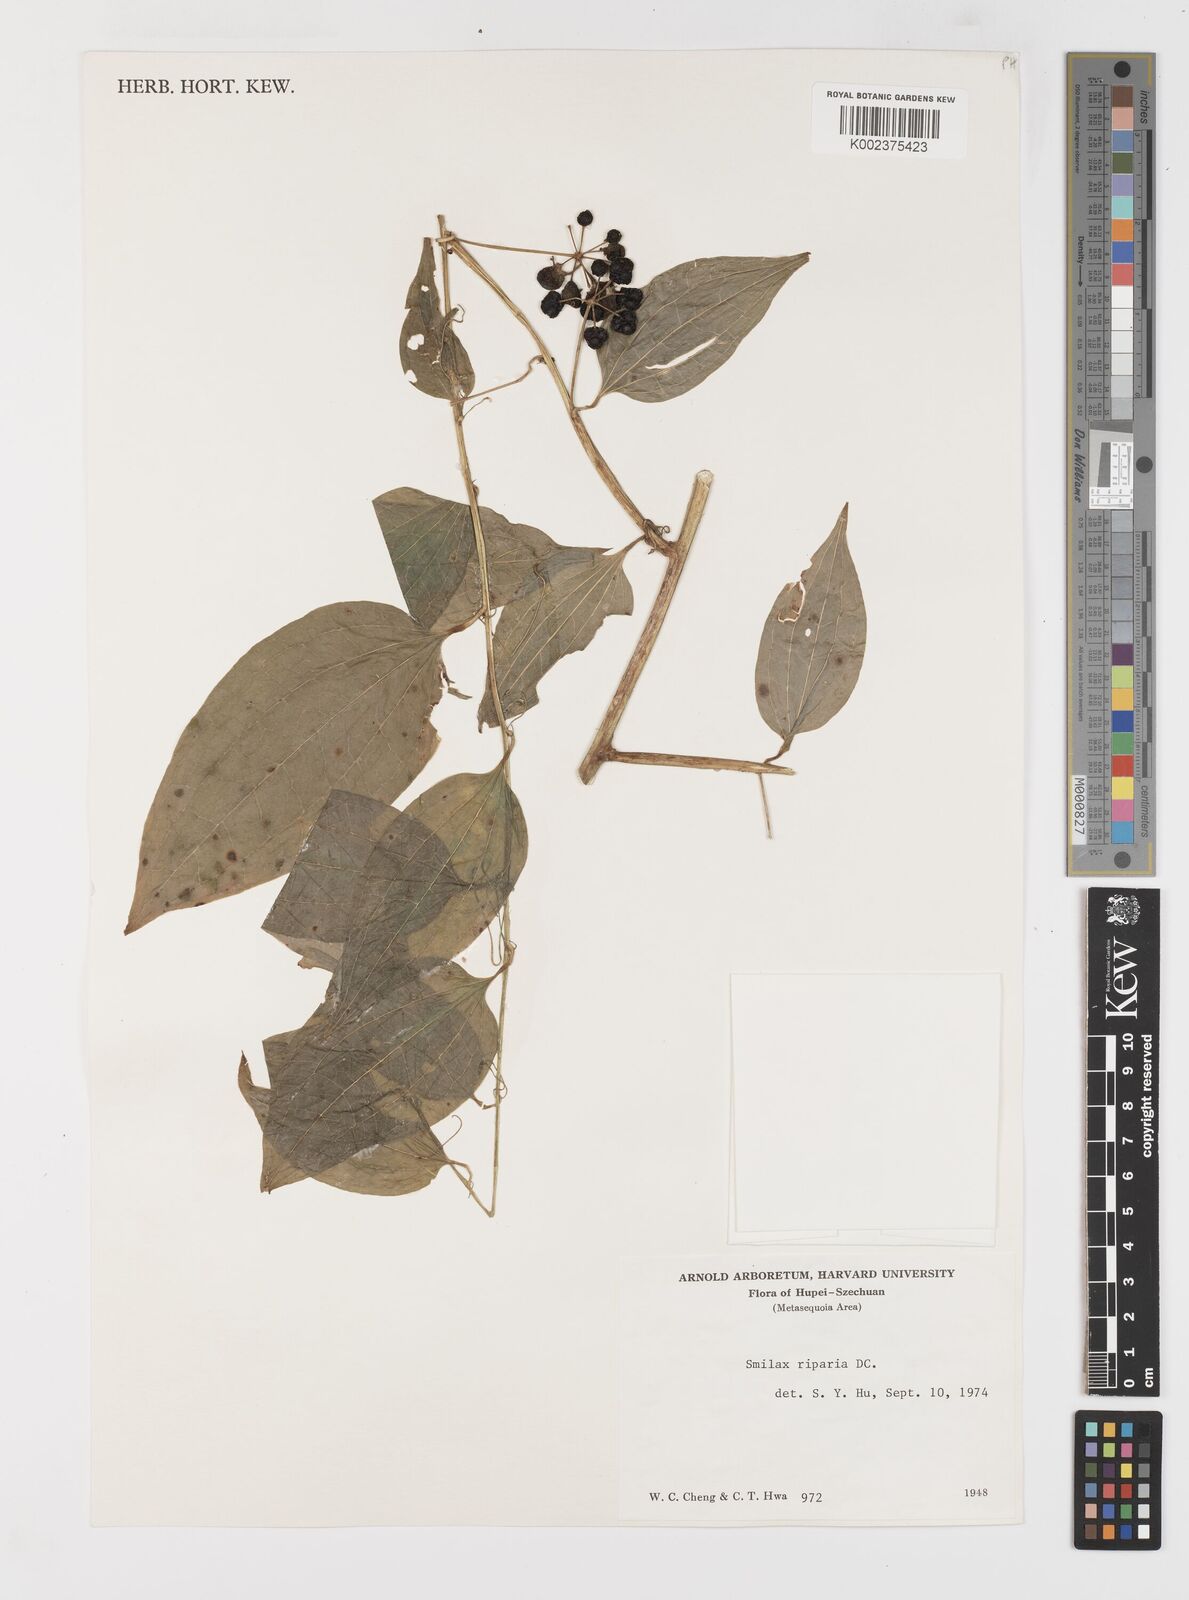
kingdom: Plantae
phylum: Tracheophyta
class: Liliopsida
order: Liliales
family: Smilacaceae
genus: Smilax
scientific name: Smilax riparia
